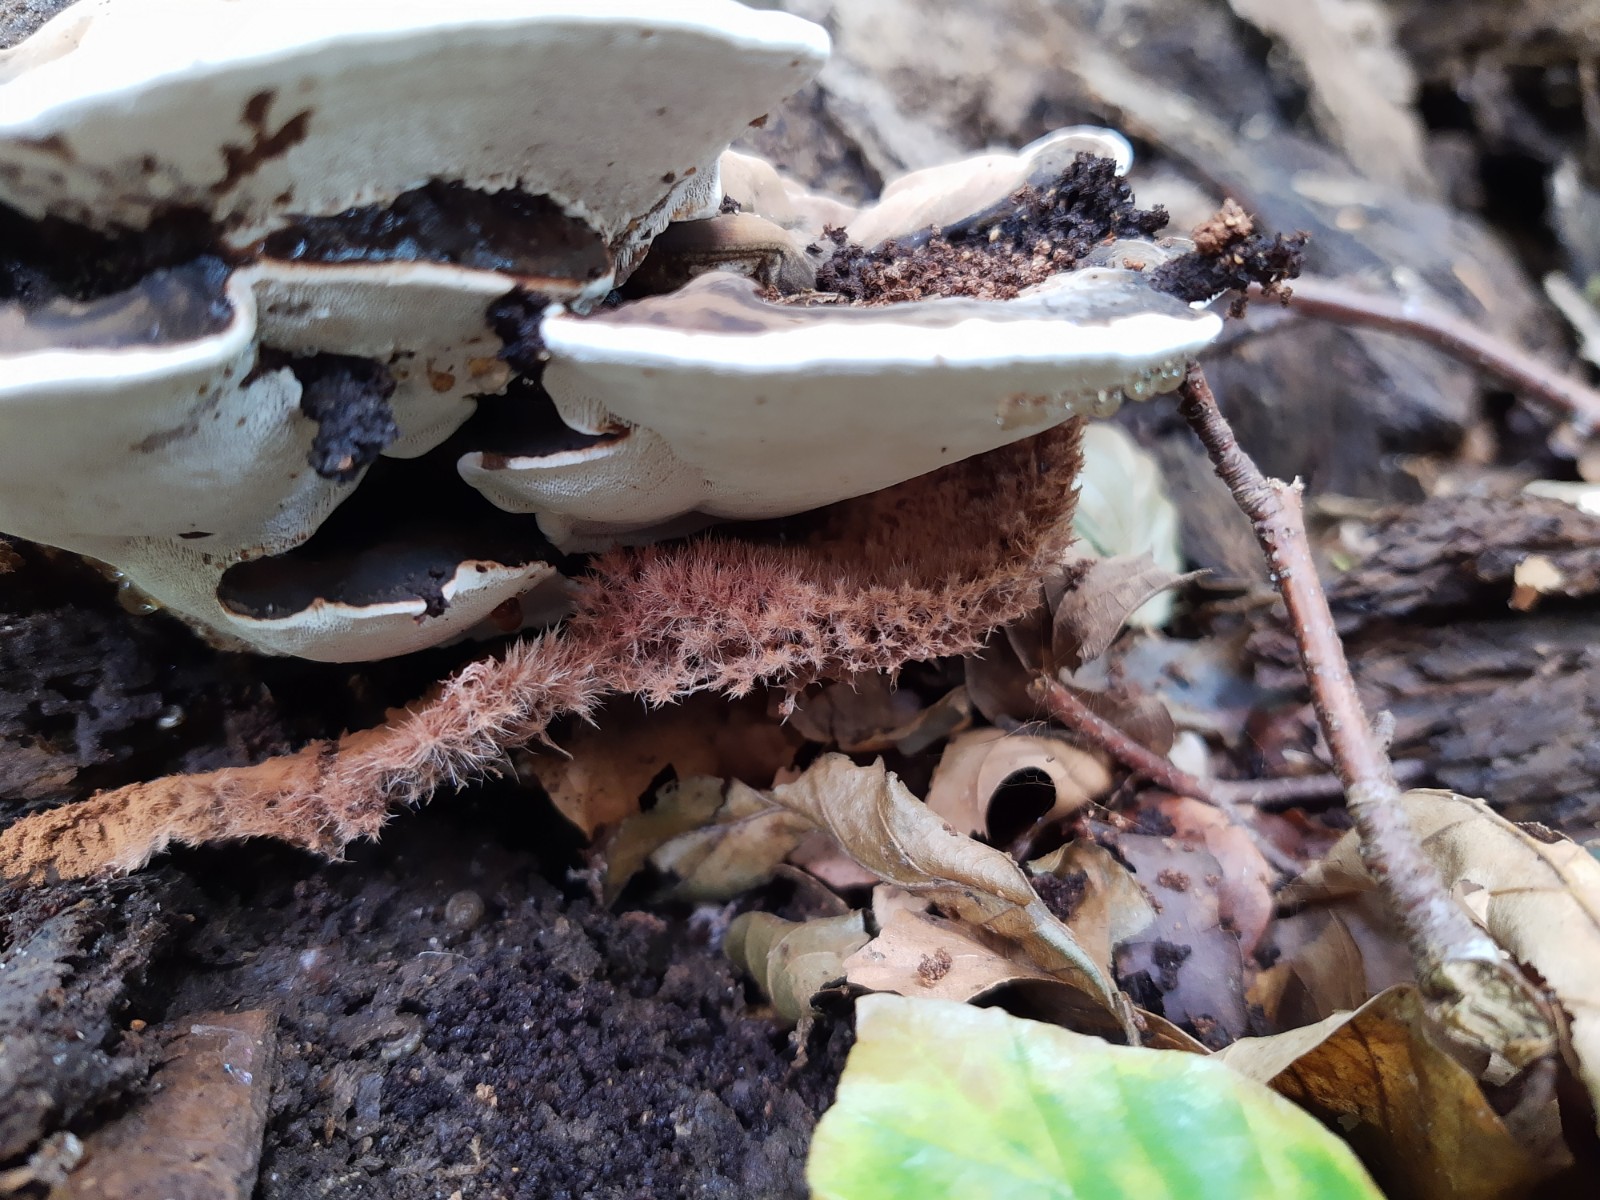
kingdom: Fungi
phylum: Ascomycota
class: Sordariomycetes
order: Hypocreales
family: Hypocreaceae
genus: Sporophagomyces
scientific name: Sporophagomyces chrysostomus
